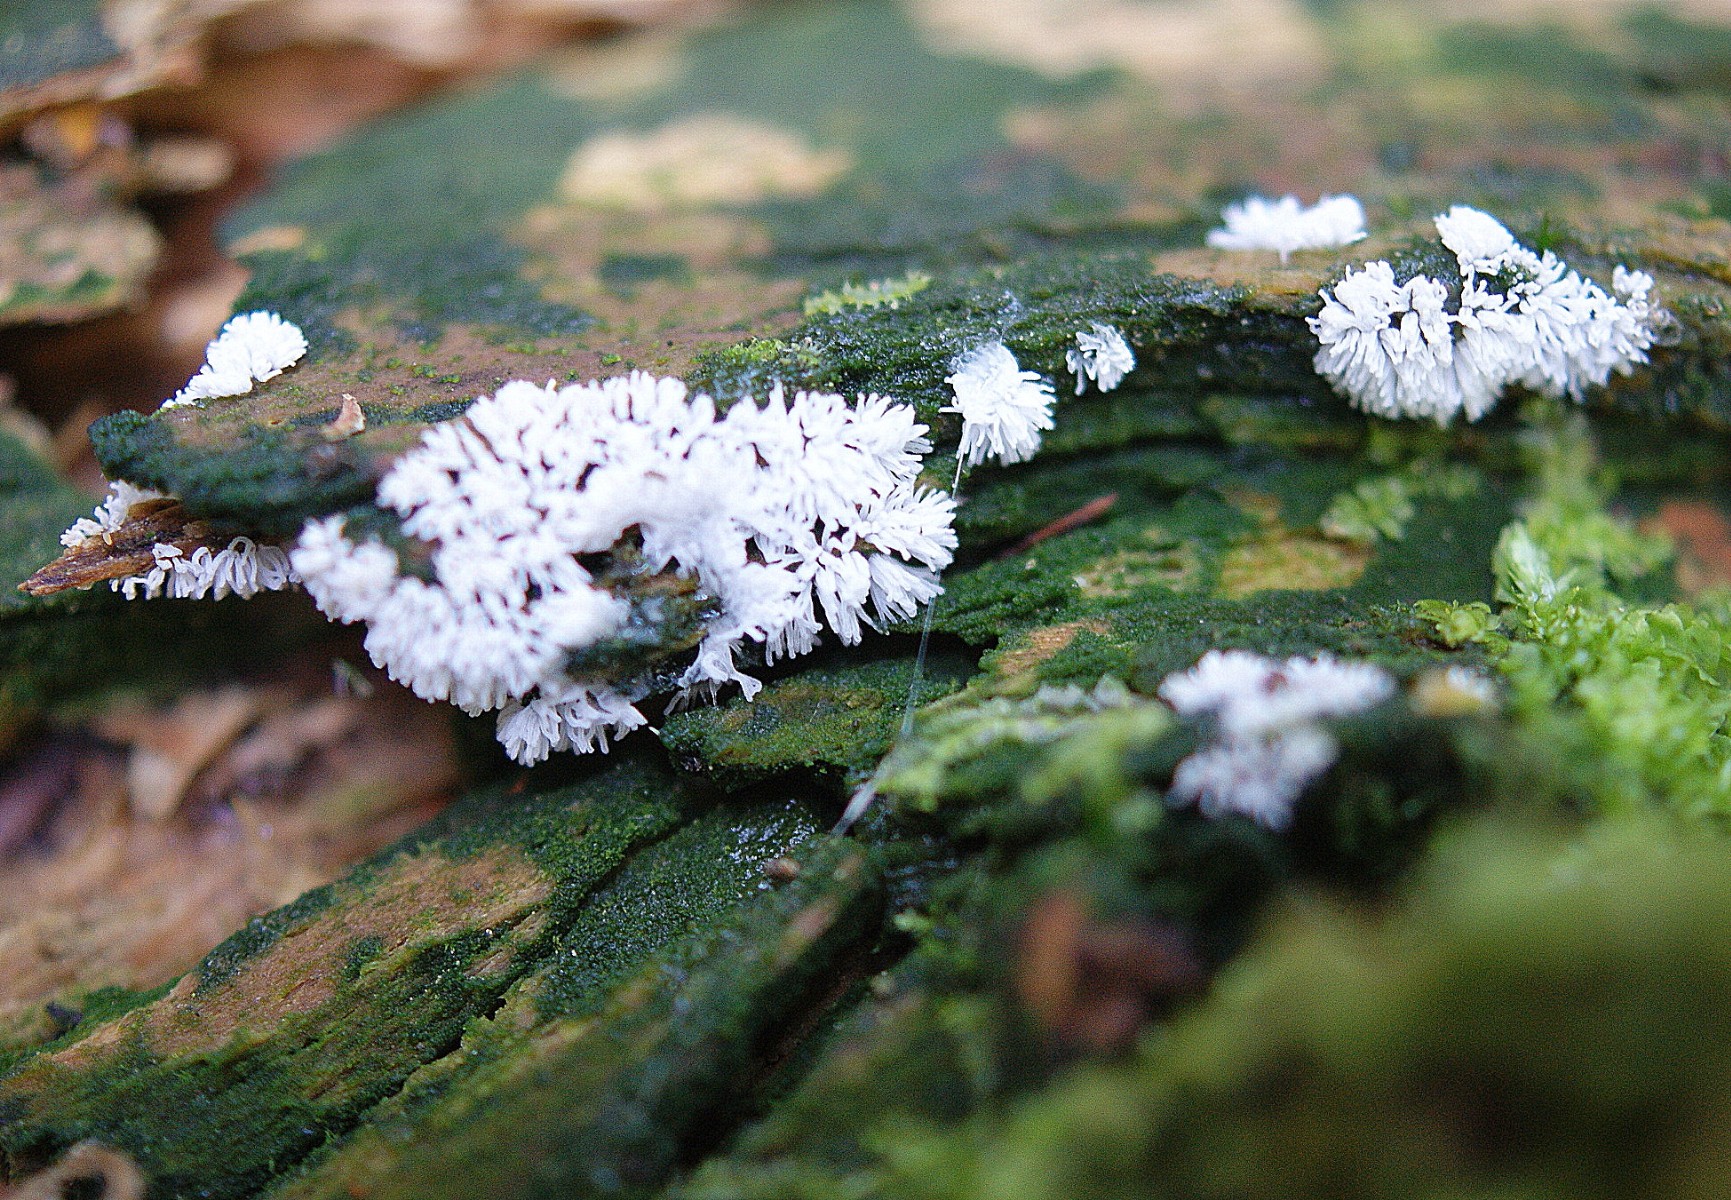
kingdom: Protozoa
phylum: Mycetozoa
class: Protosteliomycetes
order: Ceratiomyxales
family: Ceratiomyxaceae
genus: Ceratiomyxa
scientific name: Ceratiomyxa fruticulosa
